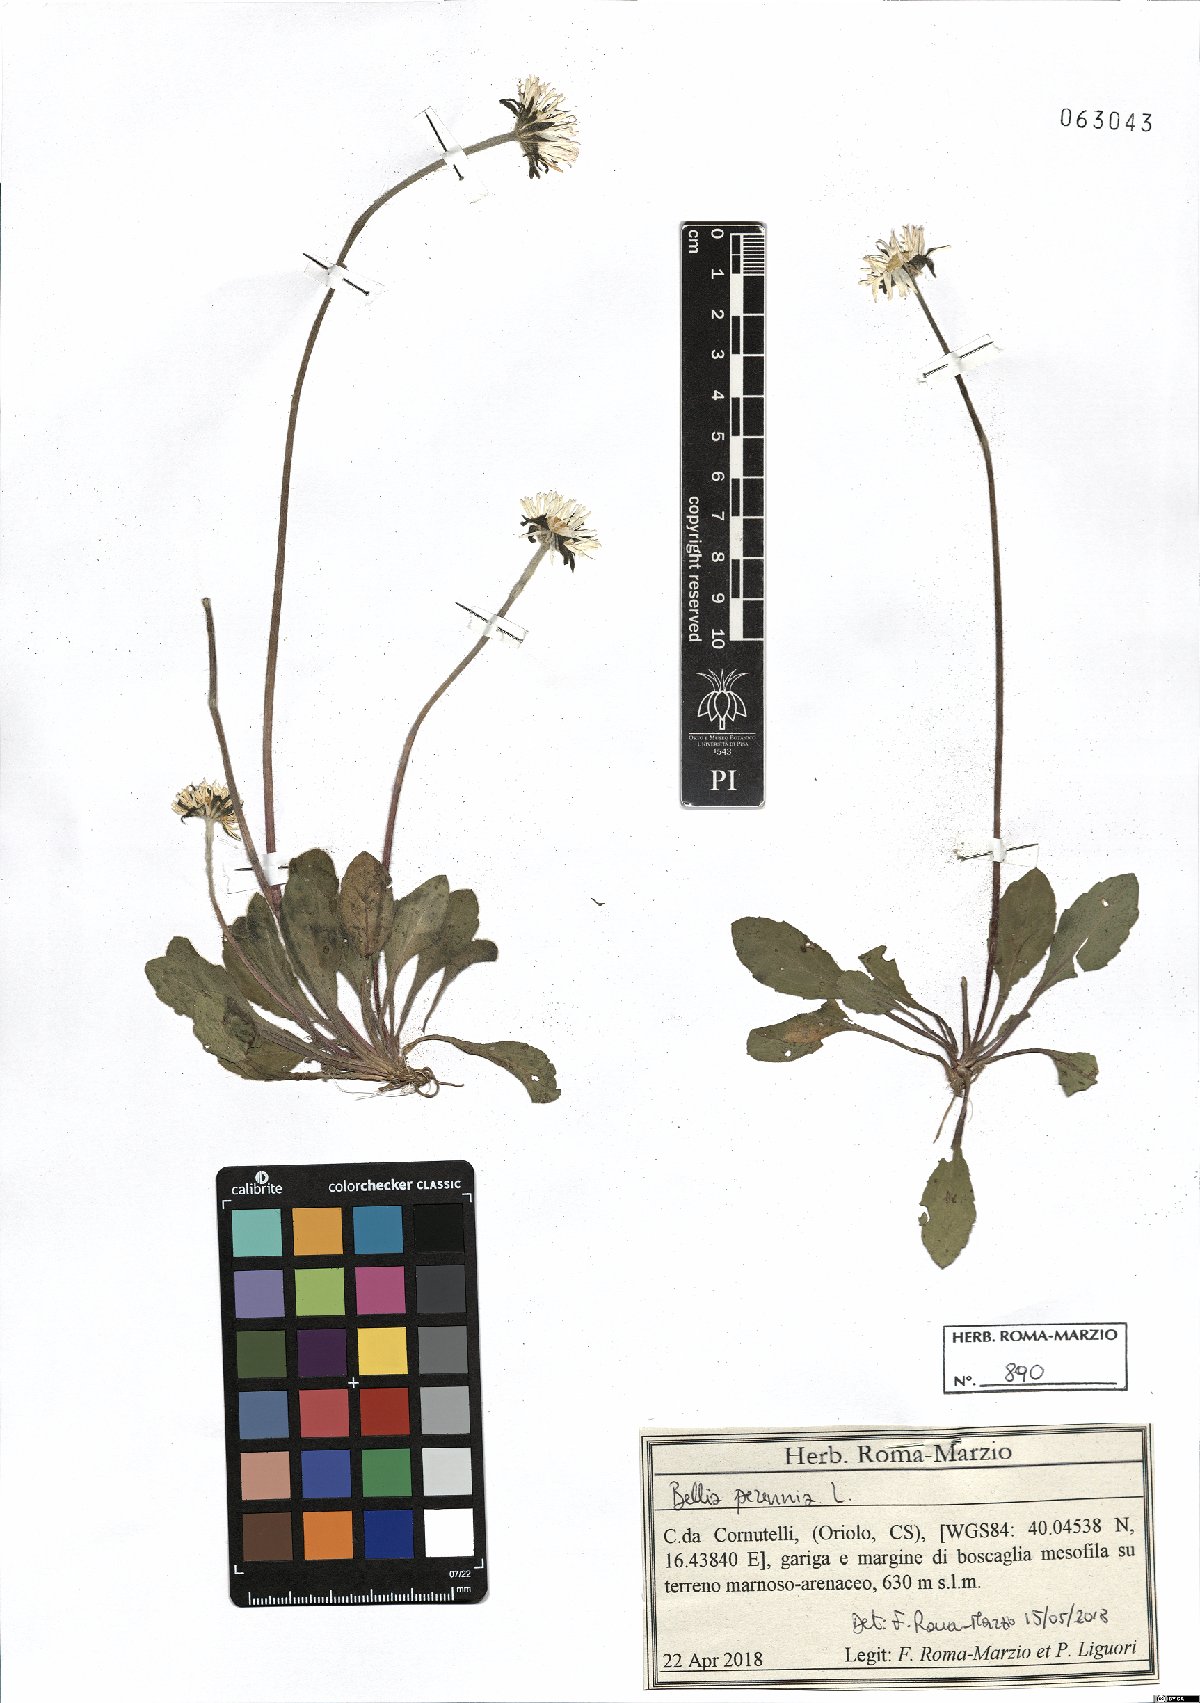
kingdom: Plantae
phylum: Tracheophyta
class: Magnoliopsida
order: Asterales
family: Asteraceae
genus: Bellis
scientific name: Bellis perennis
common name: Lawndaisy
